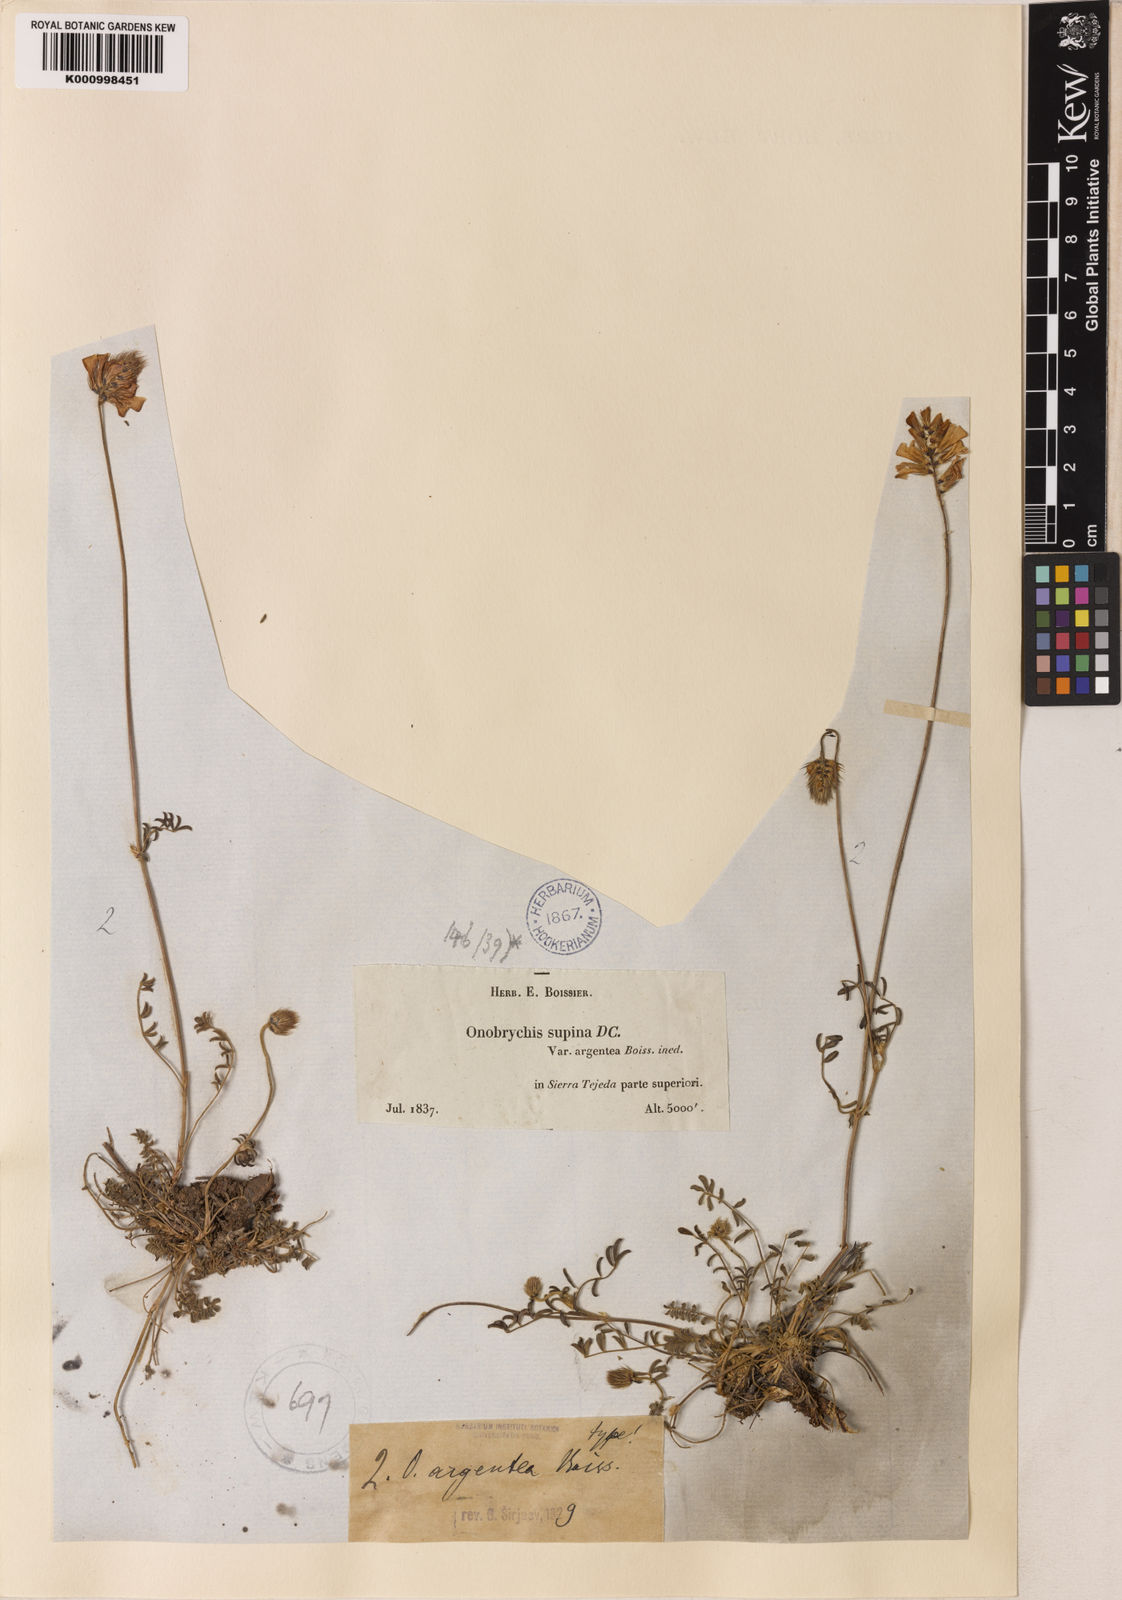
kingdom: Plantae
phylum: Tracheophyta
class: Magnoliopsida
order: Fabales
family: Fabaceae
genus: Onobrychis
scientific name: Onobrychis argentea
